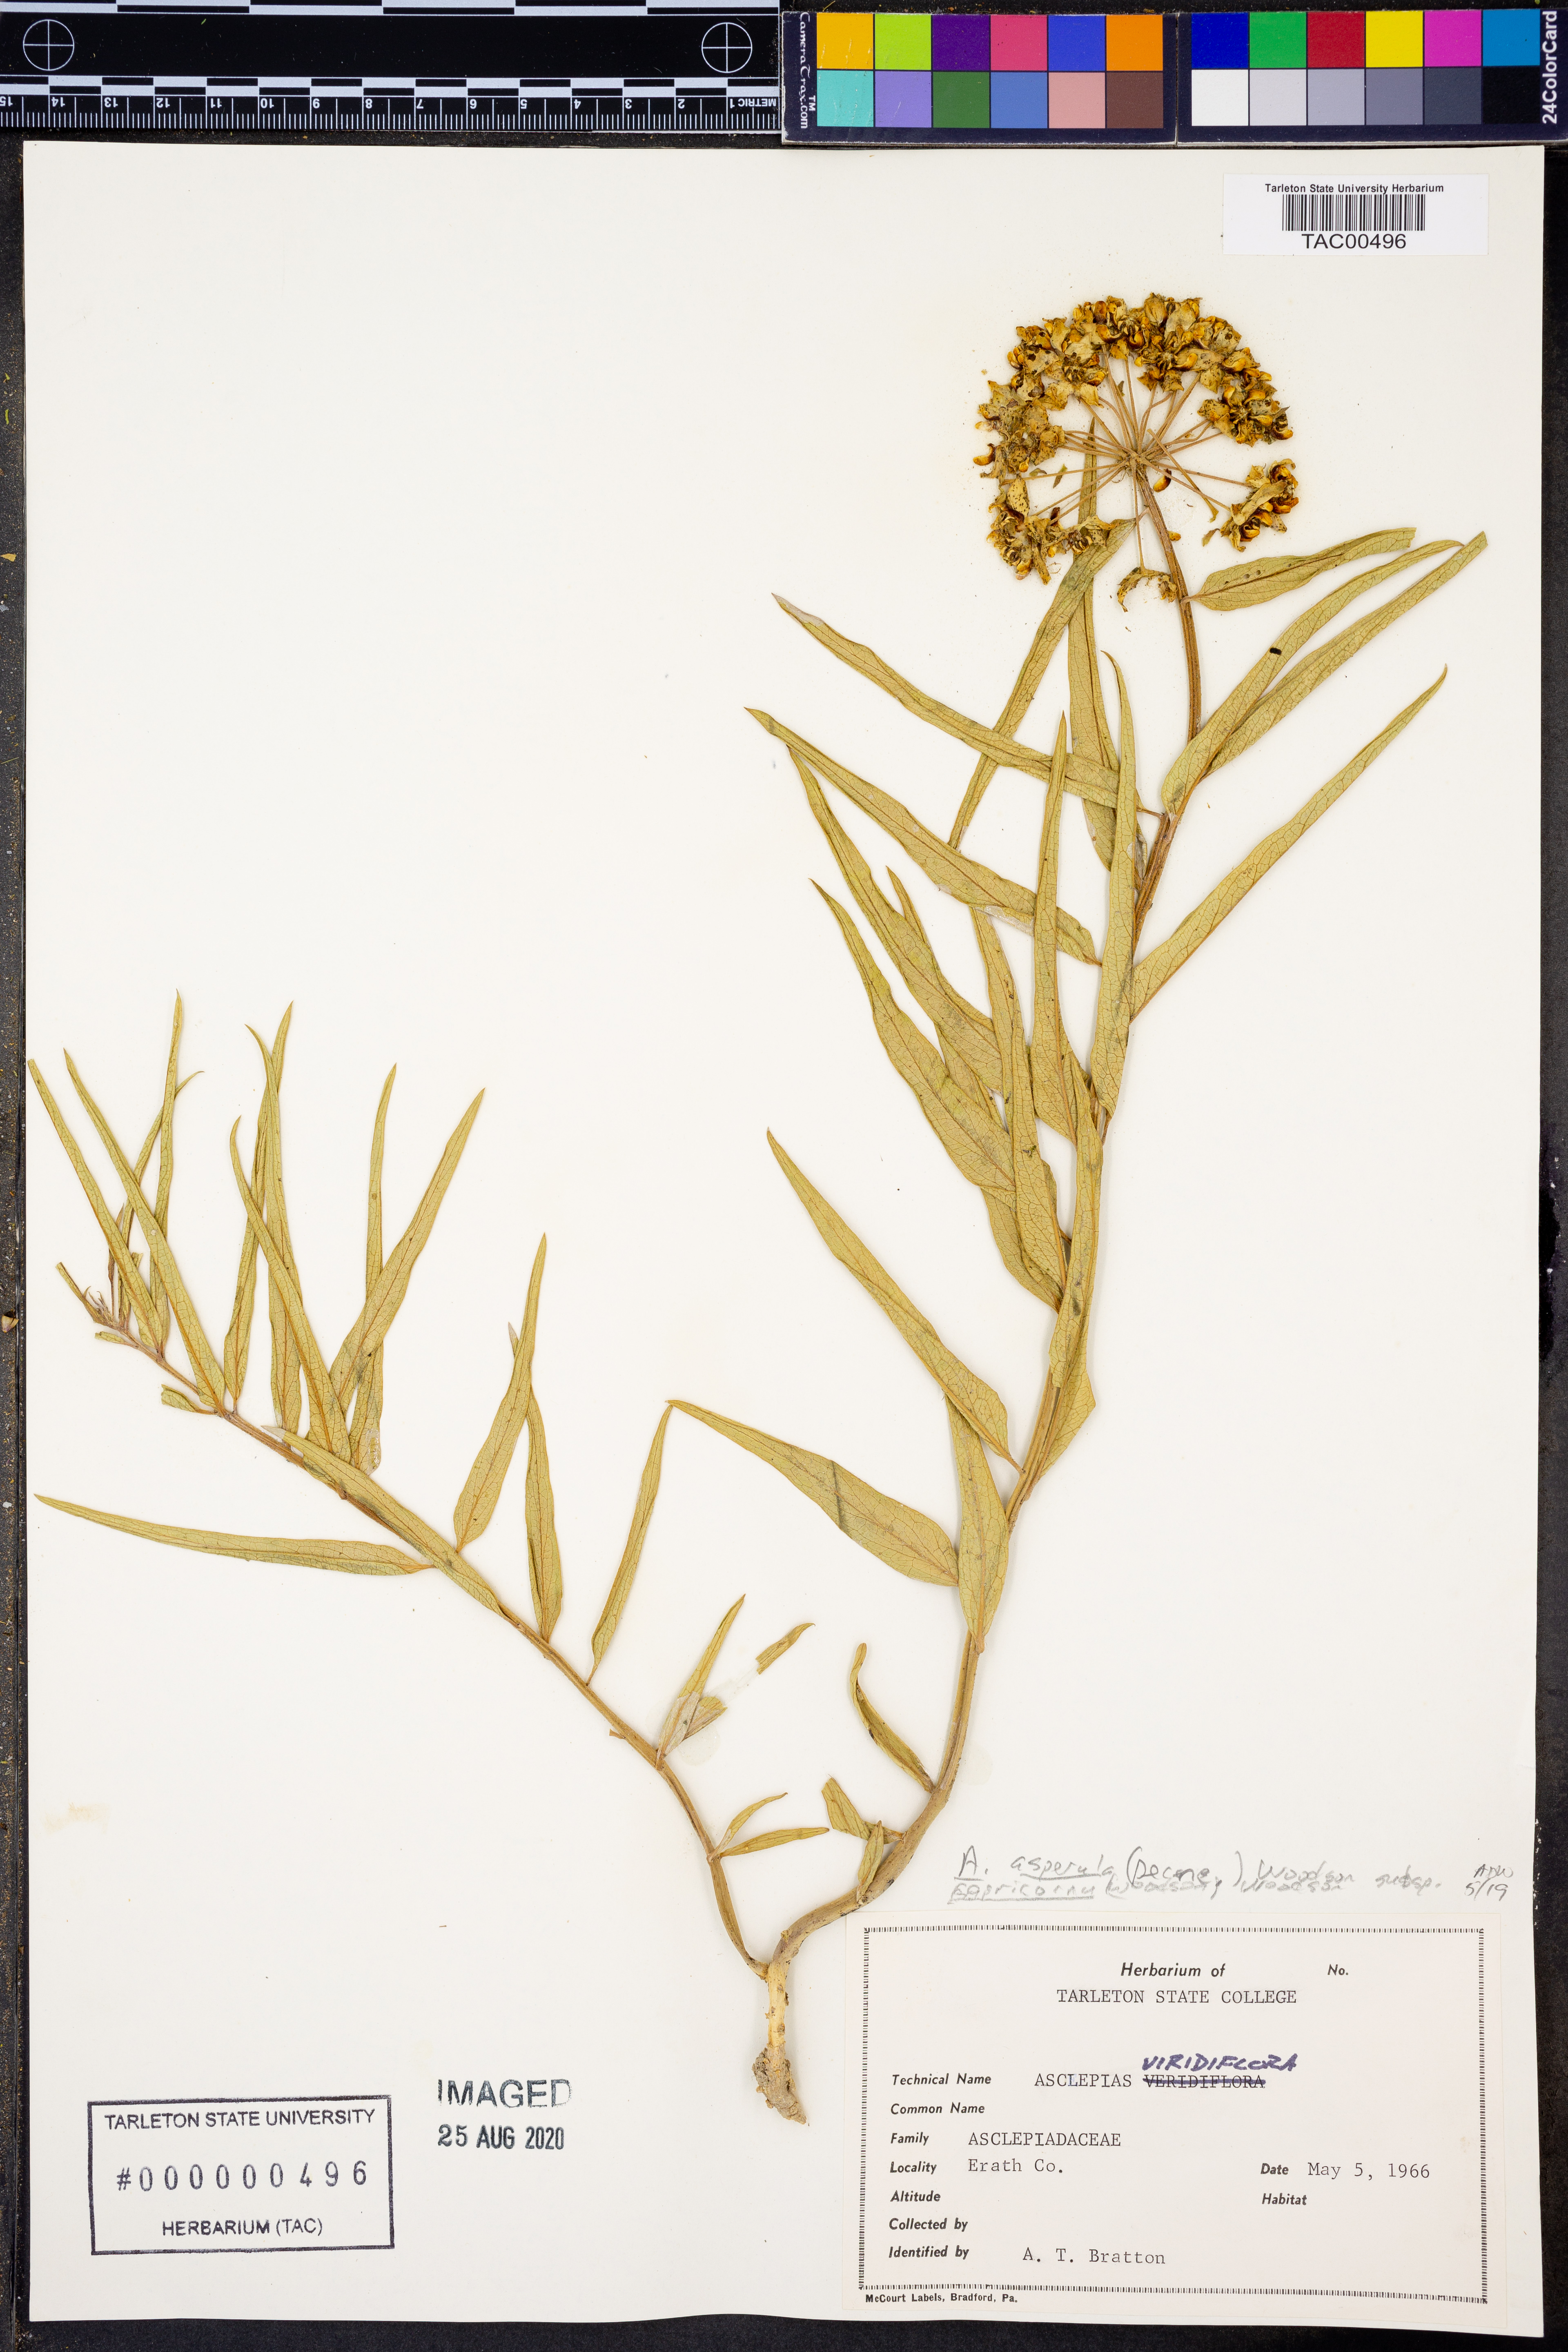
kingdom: Plantae
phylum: Tracheophyta
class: Magnoliopsida
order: Gentianales
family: Apocynaceae
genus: Asclepias
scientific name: Asclepias asperula
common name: Antelope horns
